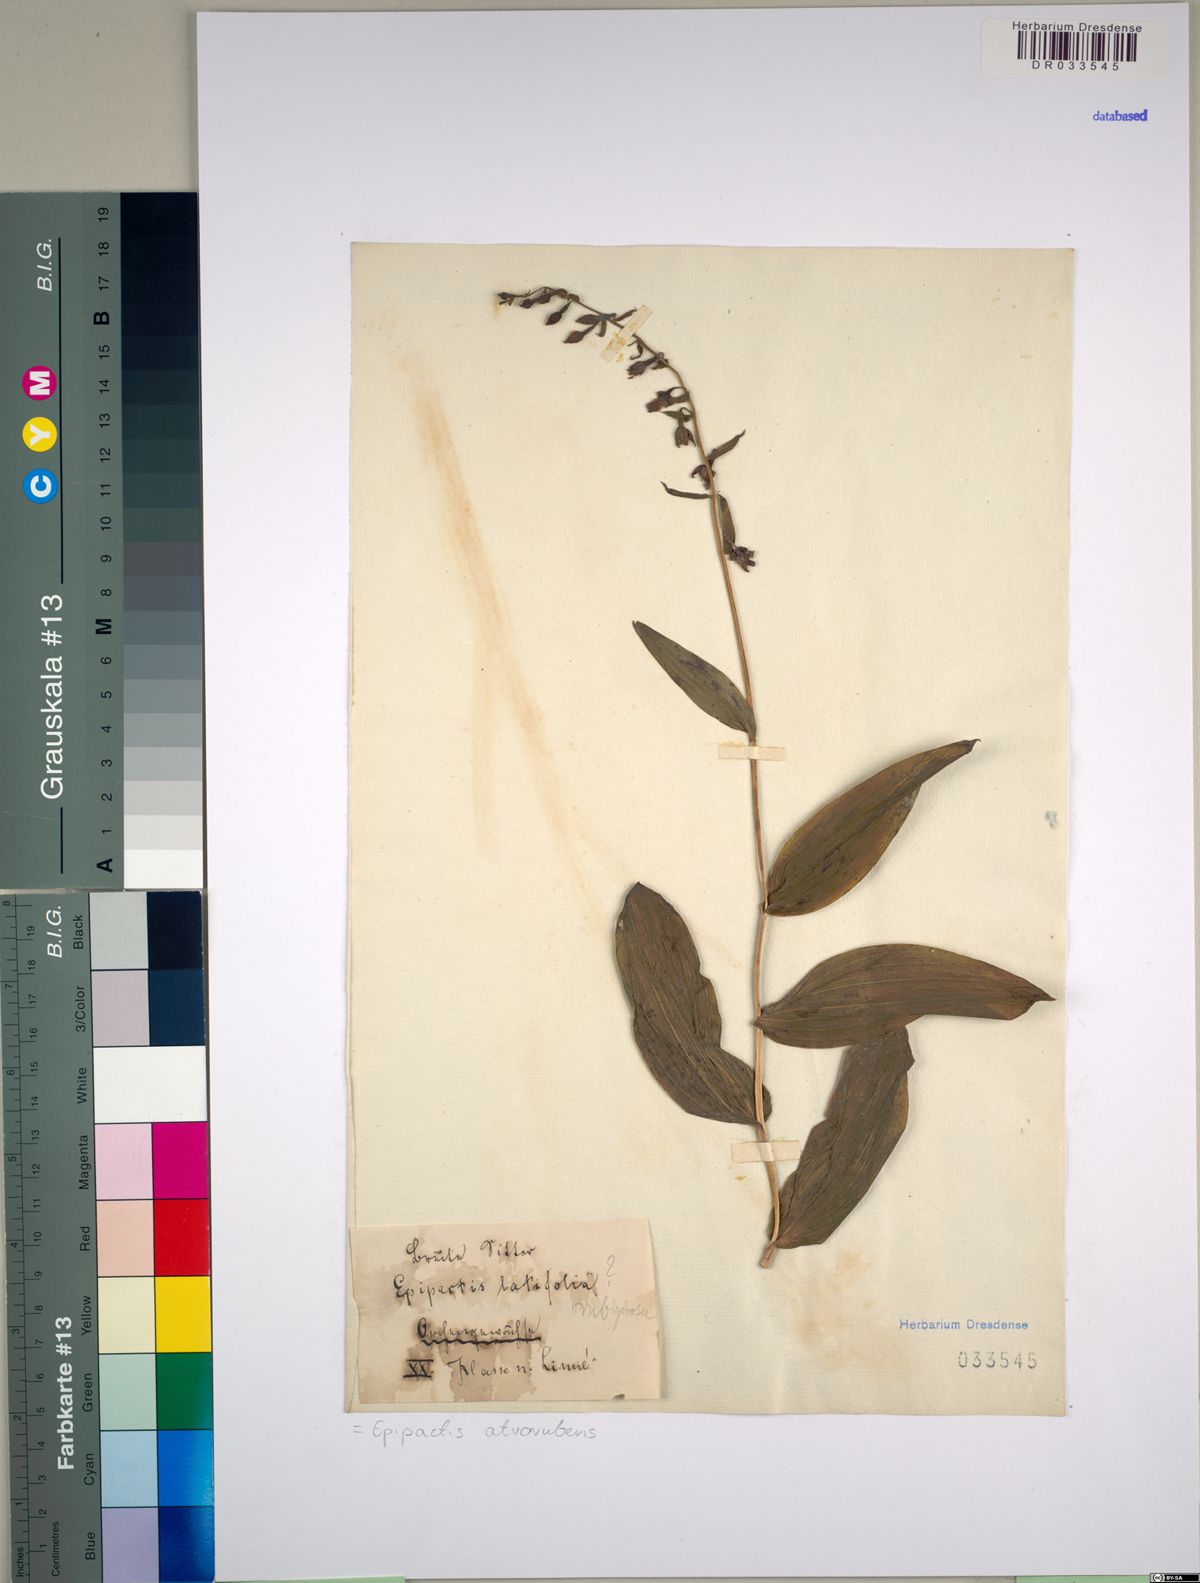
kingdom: Plantae
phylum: Tracheophyta
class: Liliopsida
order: Asparagales
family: Orchidaceae
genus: Epipactis
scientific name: Epipactis atrorubens
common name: Dark-red helleborine
